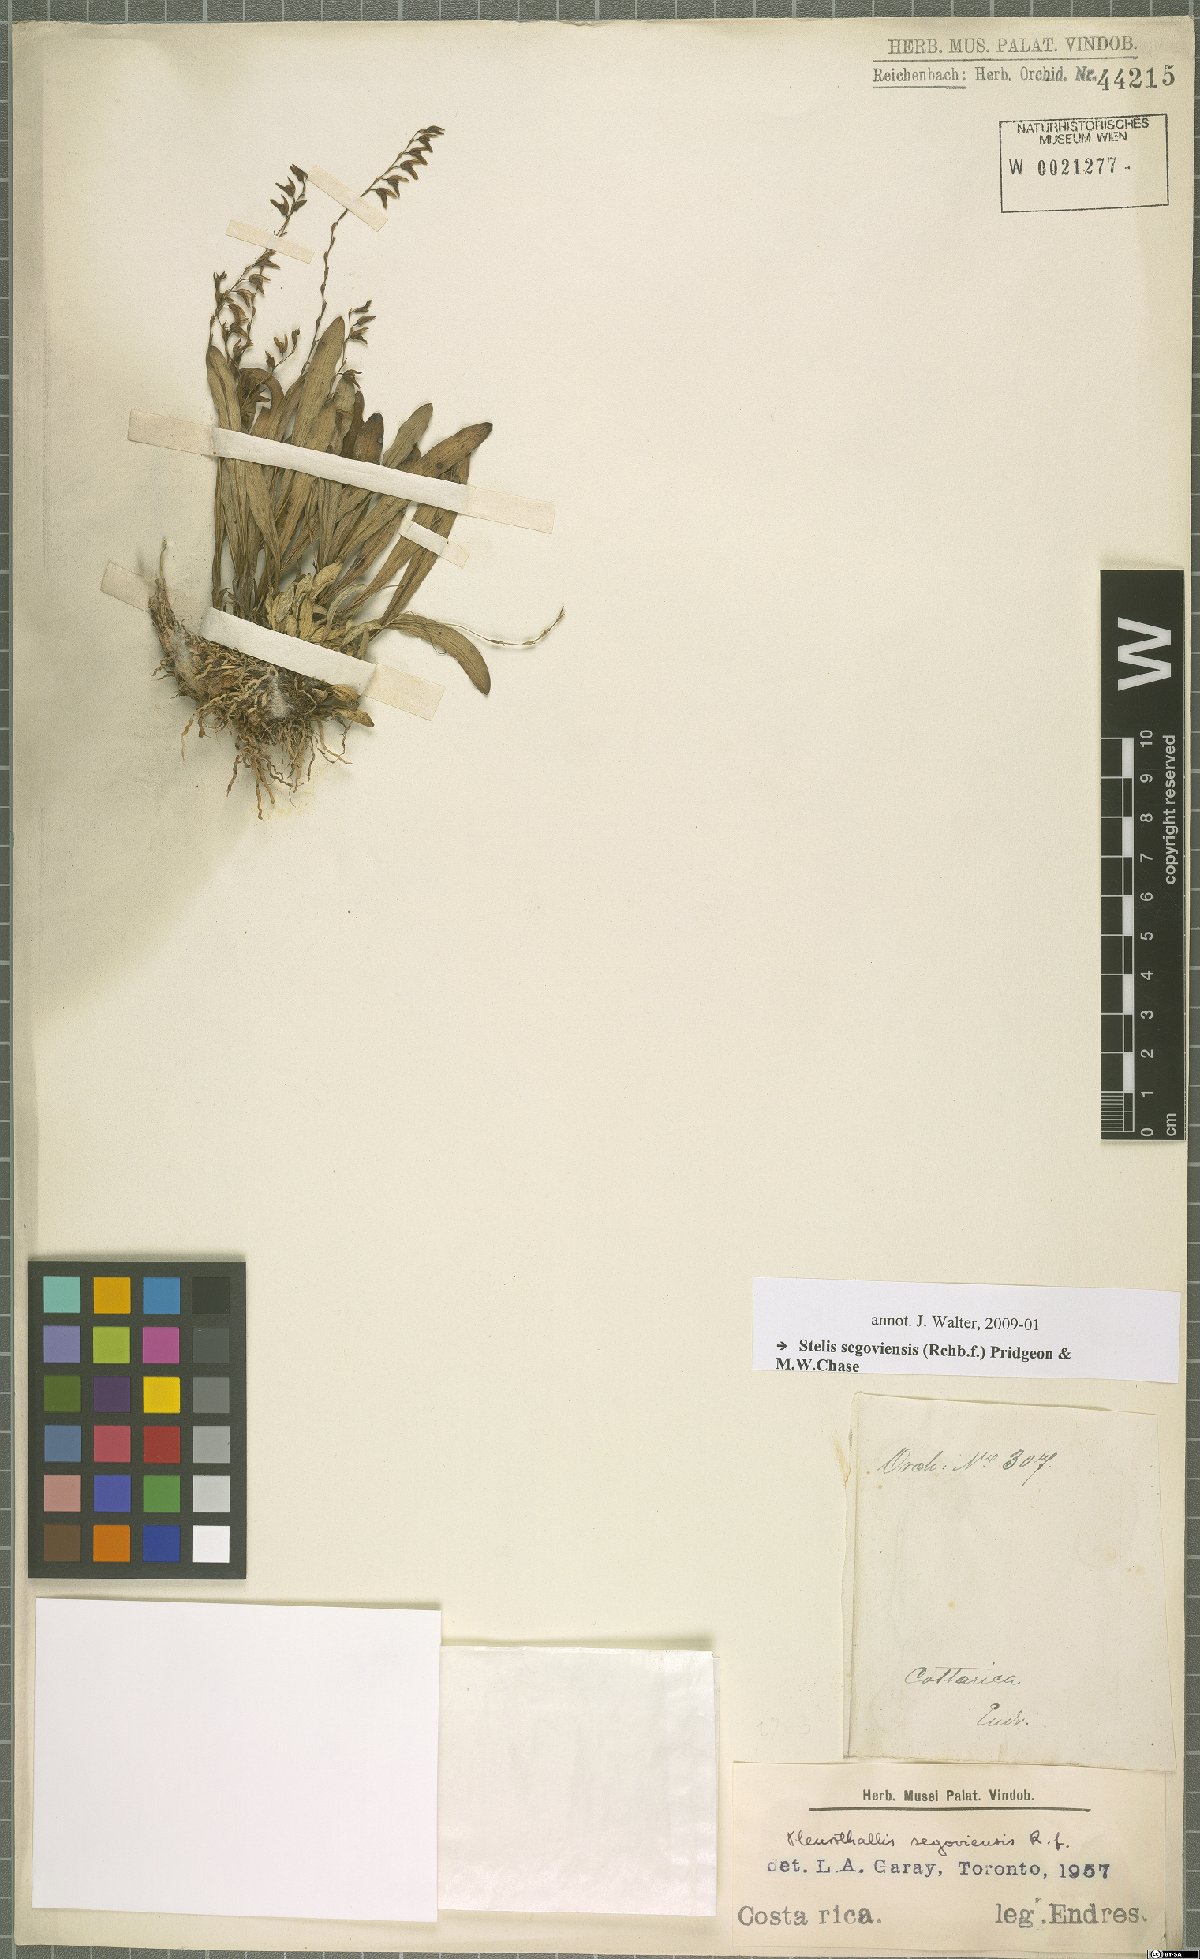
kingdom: Plantae
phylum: Tracheophyta
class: Liliopsida
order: Asparagales
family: Orchidaceae
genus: Stelis
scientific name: Stelis segoviensis
